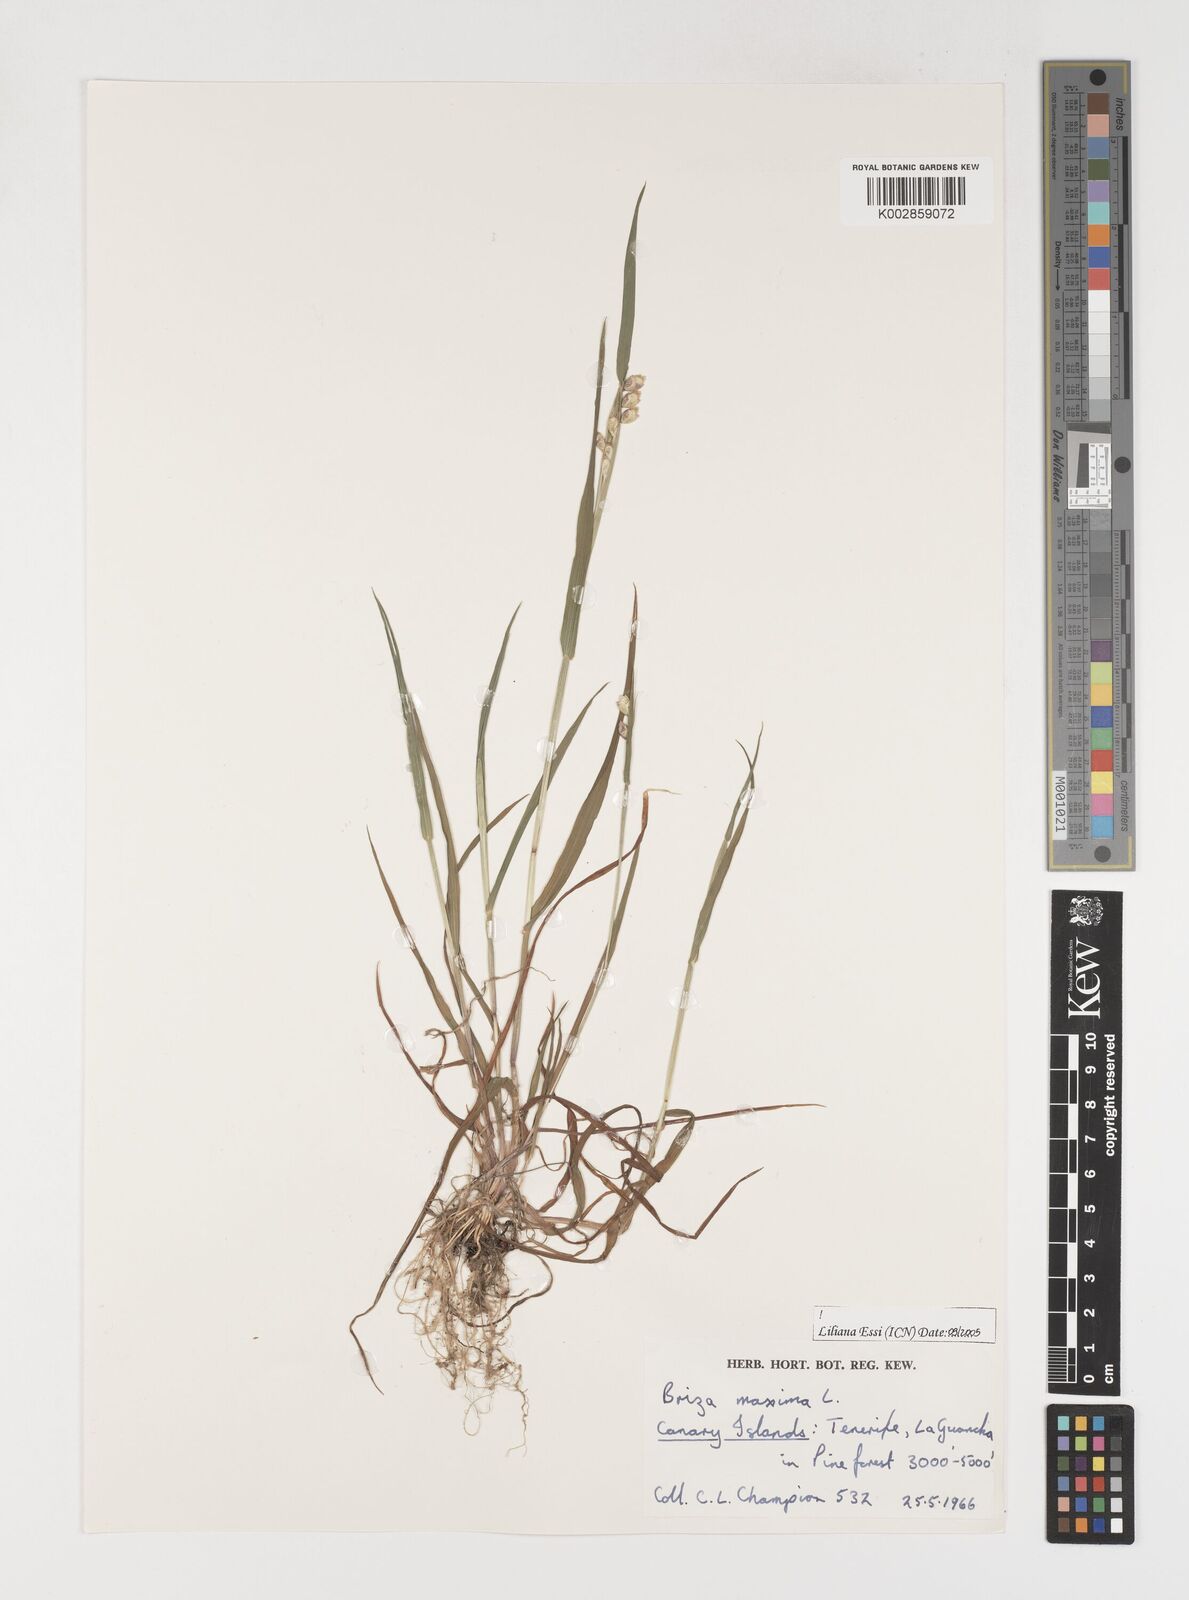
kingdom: Plantae
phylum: Tracheophyta
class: Liliopsida
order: Poales
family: Poaceae
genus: Briza
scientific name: Briza maxima
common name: Big quakinggrass
